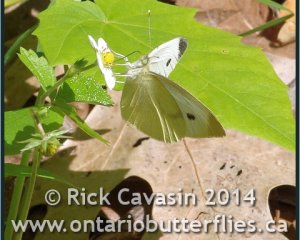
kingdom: Animalia
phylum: Arthropoda
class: Insecta
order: Lepidoptera
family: Pieridae
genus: Pieris
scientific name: Pieris rapae
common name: Cabbage White
